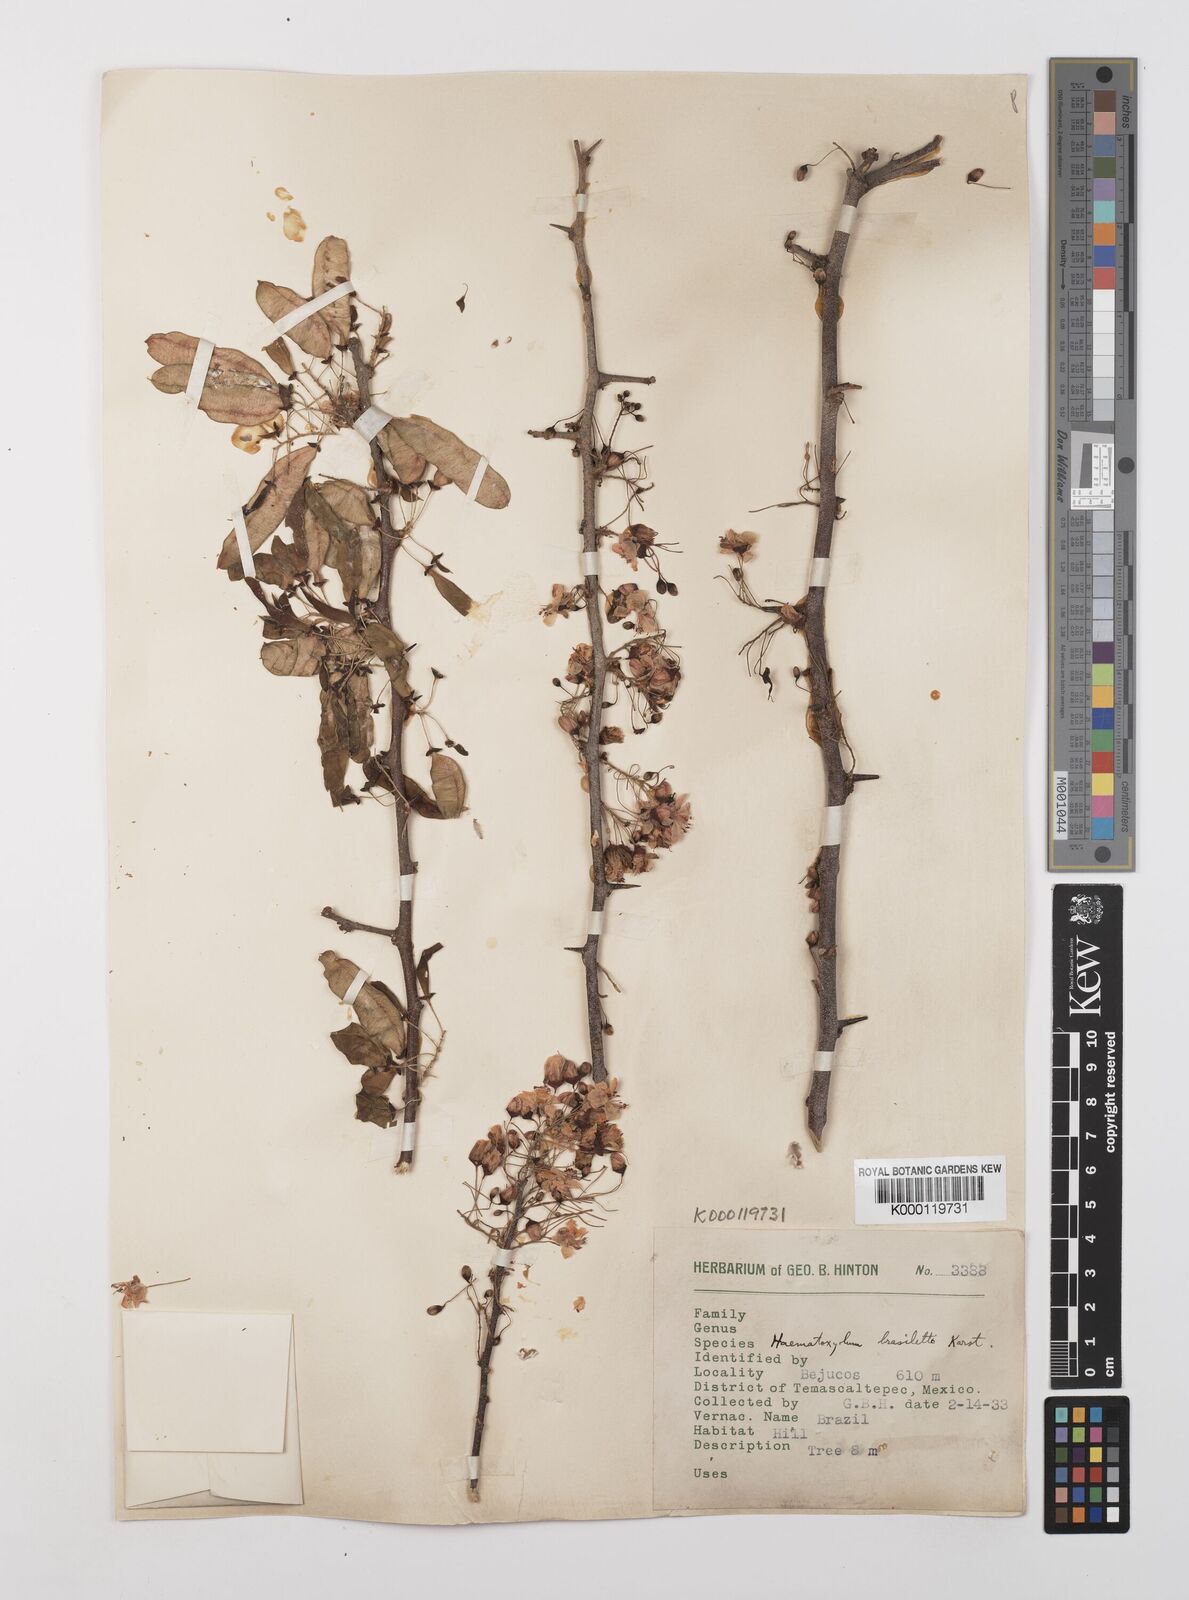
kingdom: Plantae
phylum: Tracheophyta
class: Magnoliopsida
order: Fabales
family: Fabaceae
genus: Haematoxylum
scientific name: Haematoxylum brasiletto
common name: Peachwood
